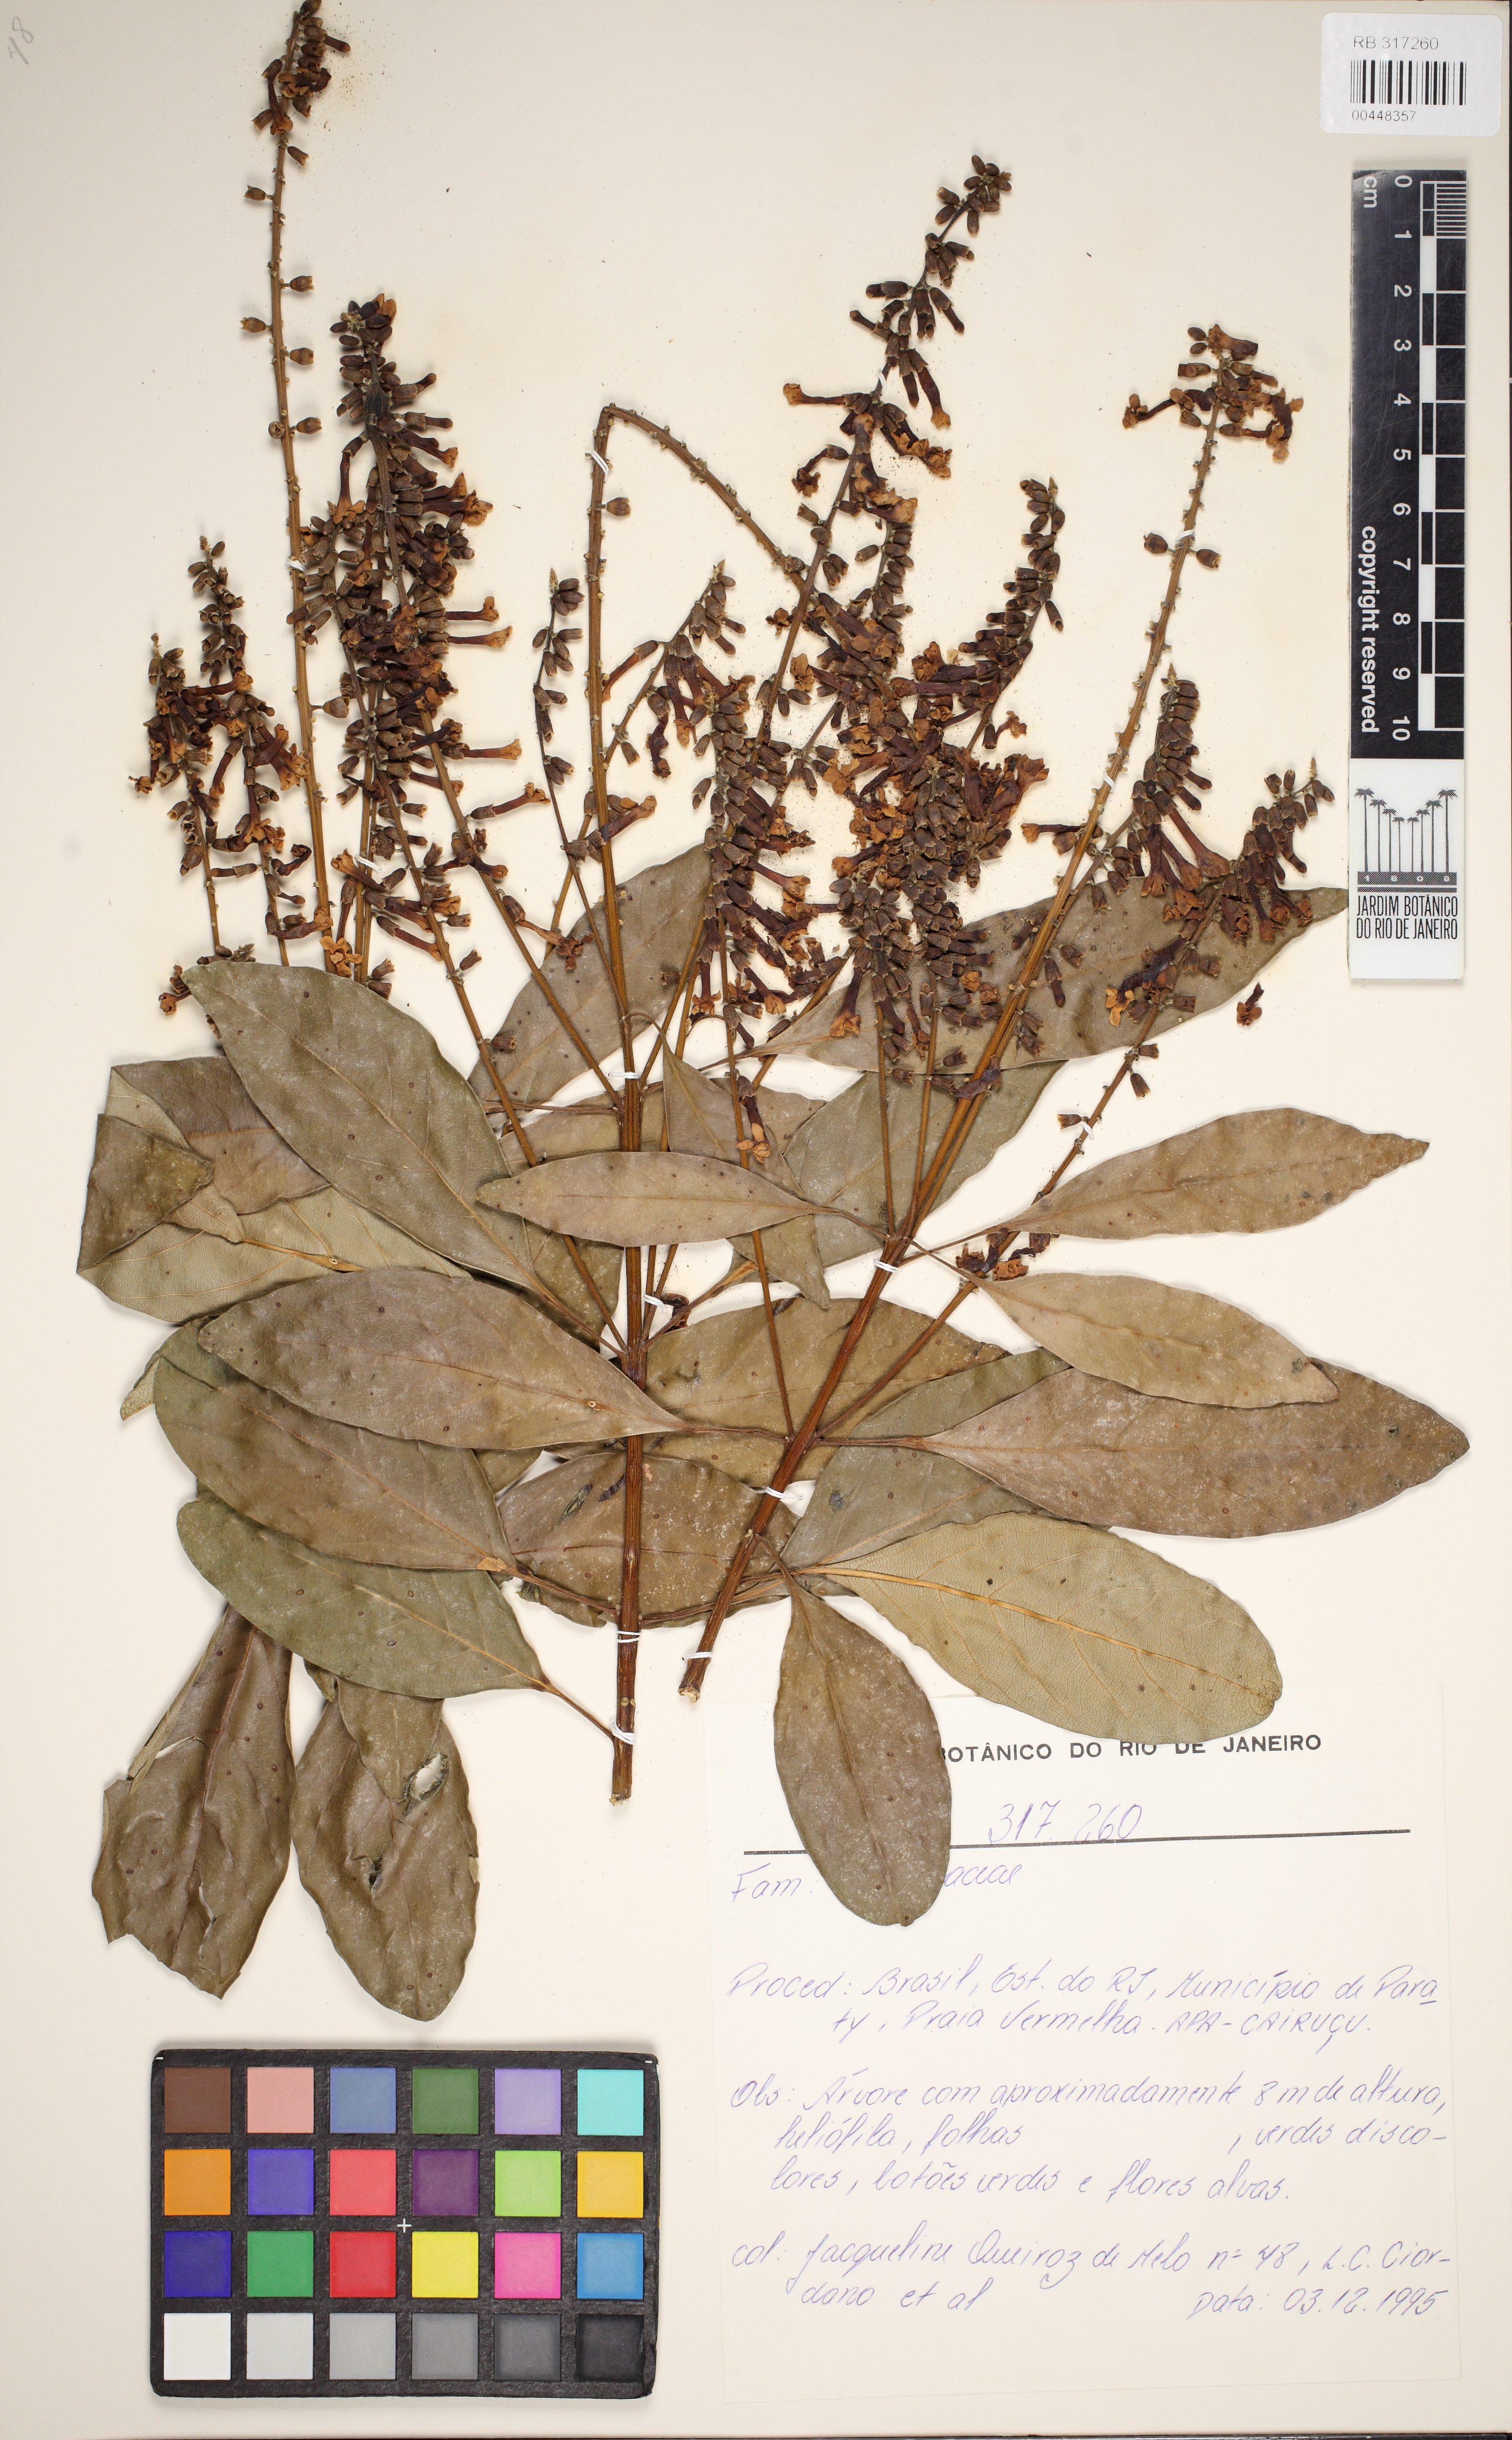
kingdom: Plantae
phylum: Tracheophyta
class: Magnoliopsida
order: Lamiales
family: Verbenaceae
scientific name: Verbenaceae
